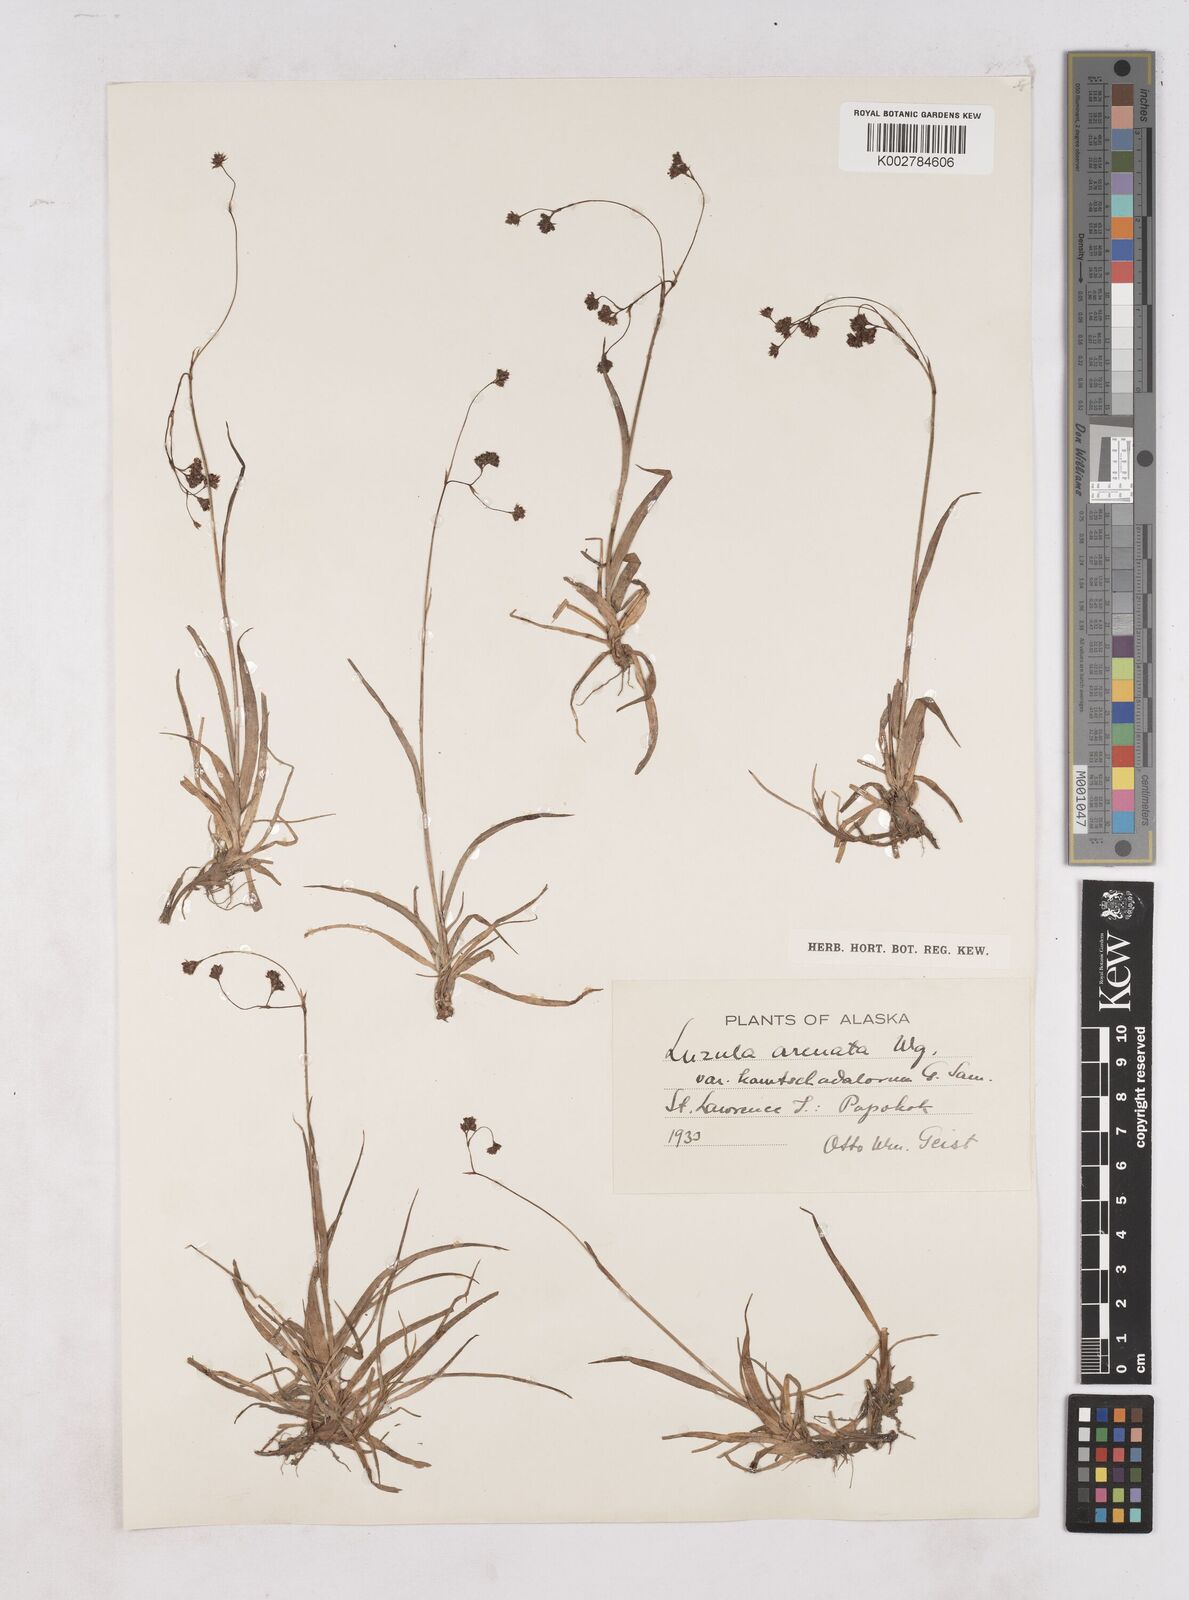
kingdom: Plantae
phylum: Tracheophyta
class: Liliopsida
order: Poales
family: Juncaceae
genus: Luzula
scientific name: Luzula arcuata
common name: Curved wood-rush
